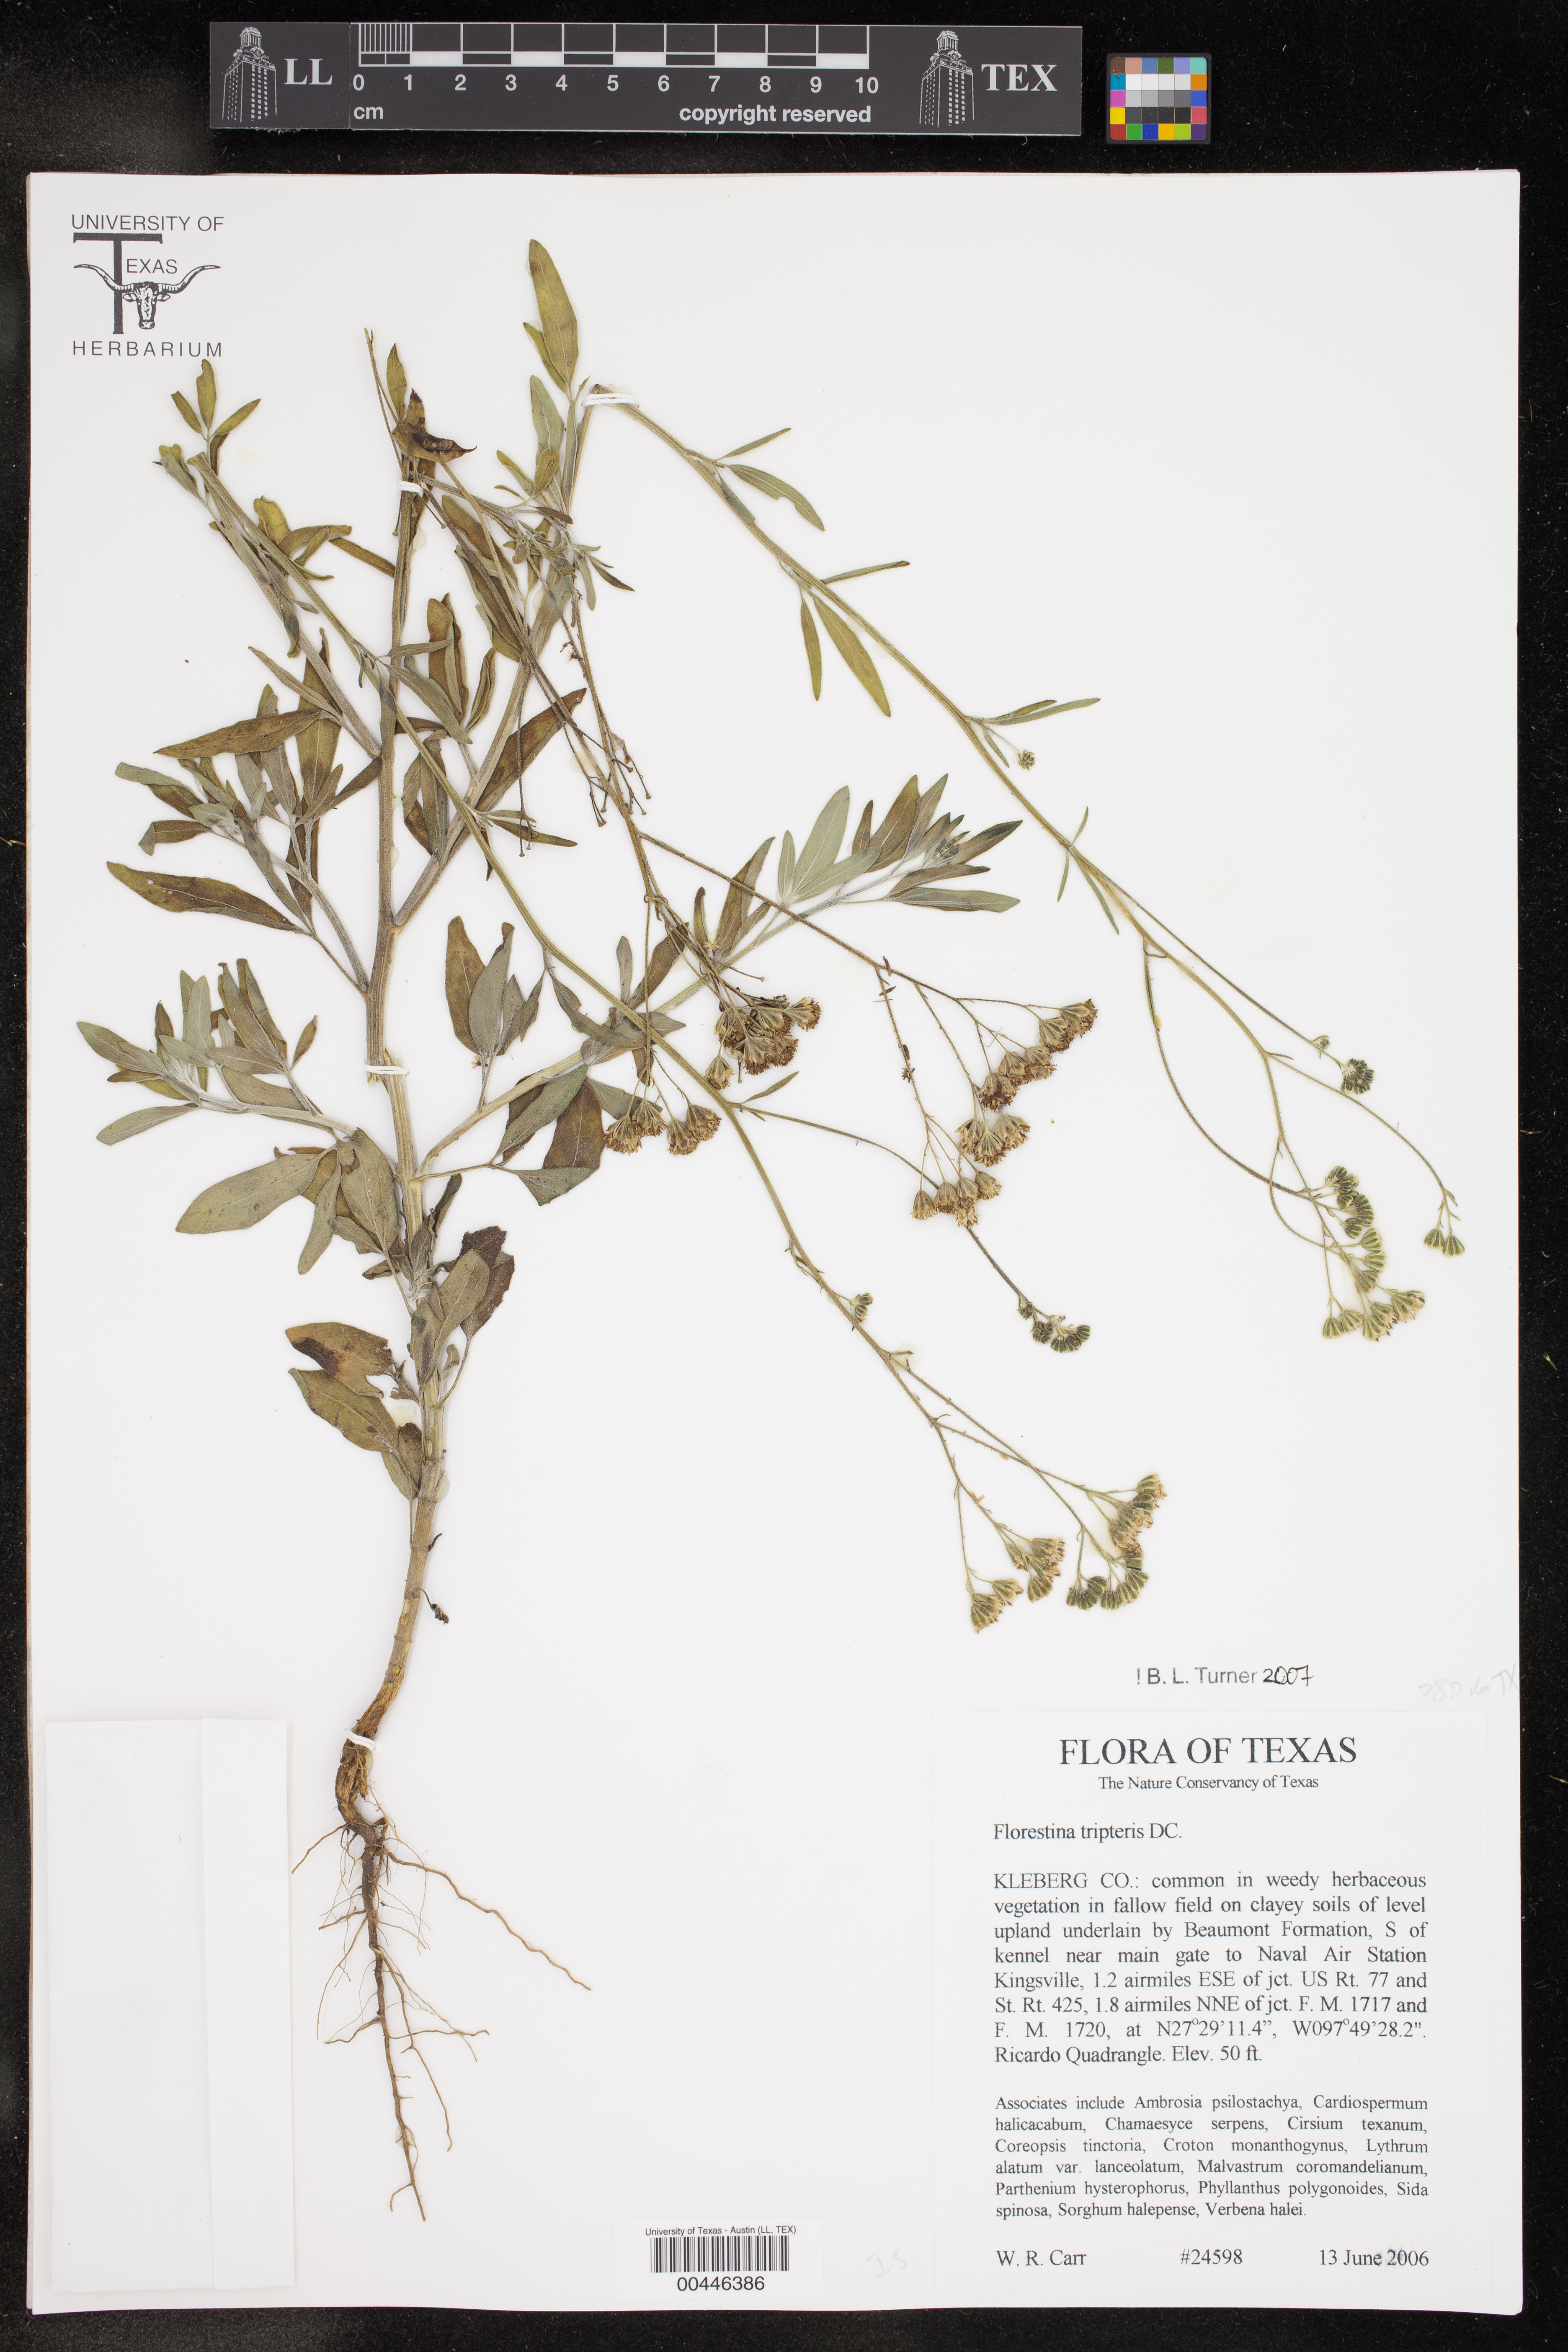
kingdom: Plantae
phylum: Tracheophyta
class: Magnoliopsida
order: Asterales
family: Asteraceae
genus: Florestina
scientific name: Florestina tripteris
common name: Sticky florestina
